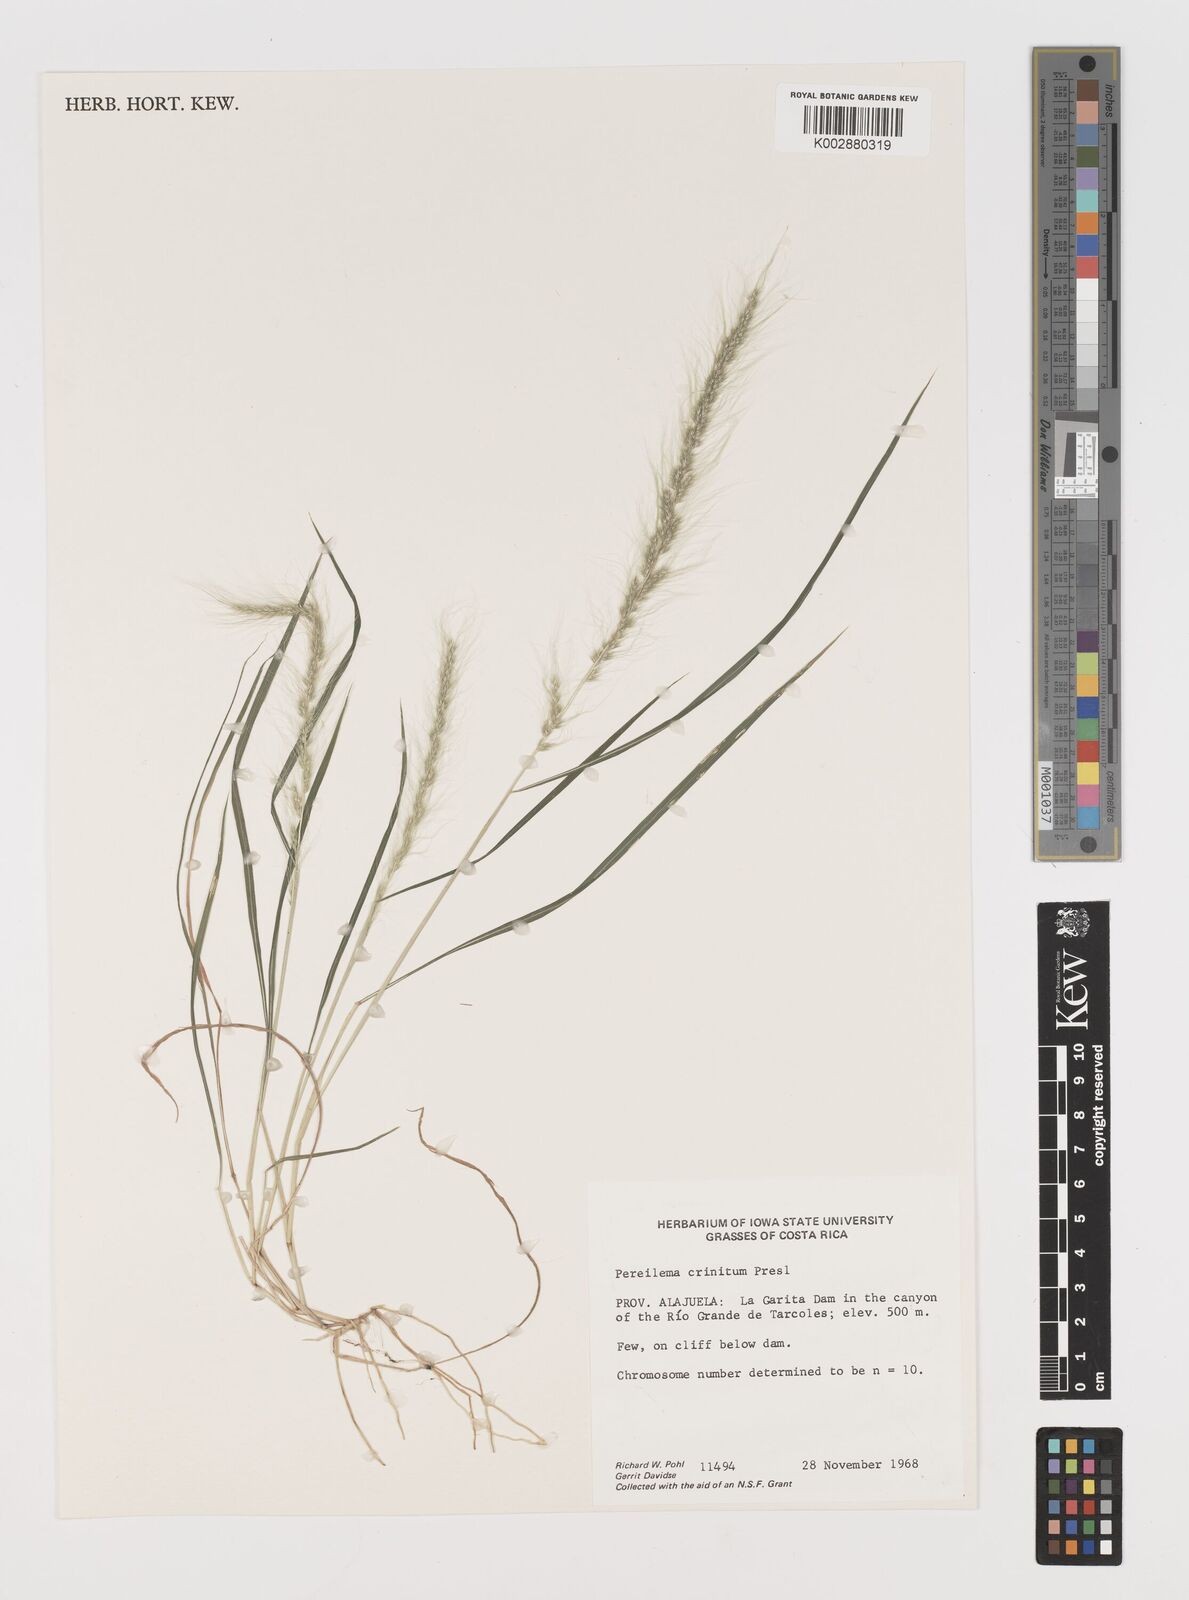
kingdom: Plantae
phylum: Tracheophyta
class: Liliopsida
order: Poales
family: Poaceae
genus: Muhlenbergia
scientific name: Muhlenbergia pereilema
